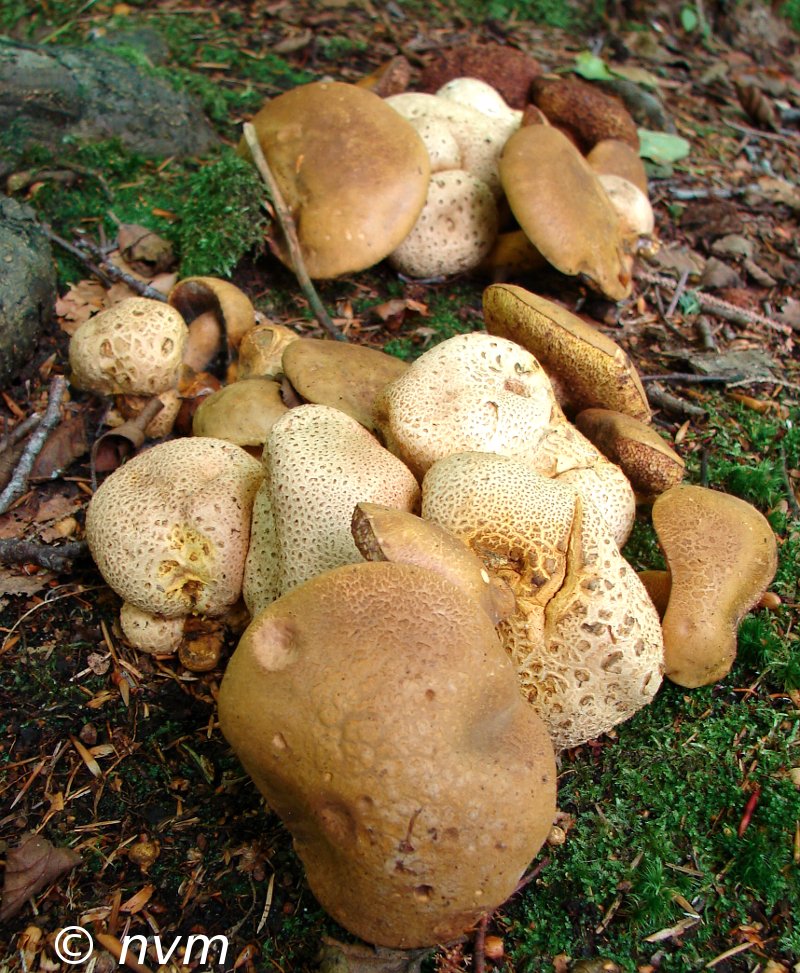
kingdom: Fungi
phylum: Basidiomycota
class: Agaricomycetes
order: Boletales
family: Boletaceae
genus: Pseudoboletus
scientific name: Pseudoboletus parasiticus
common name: snyltende rørhat
